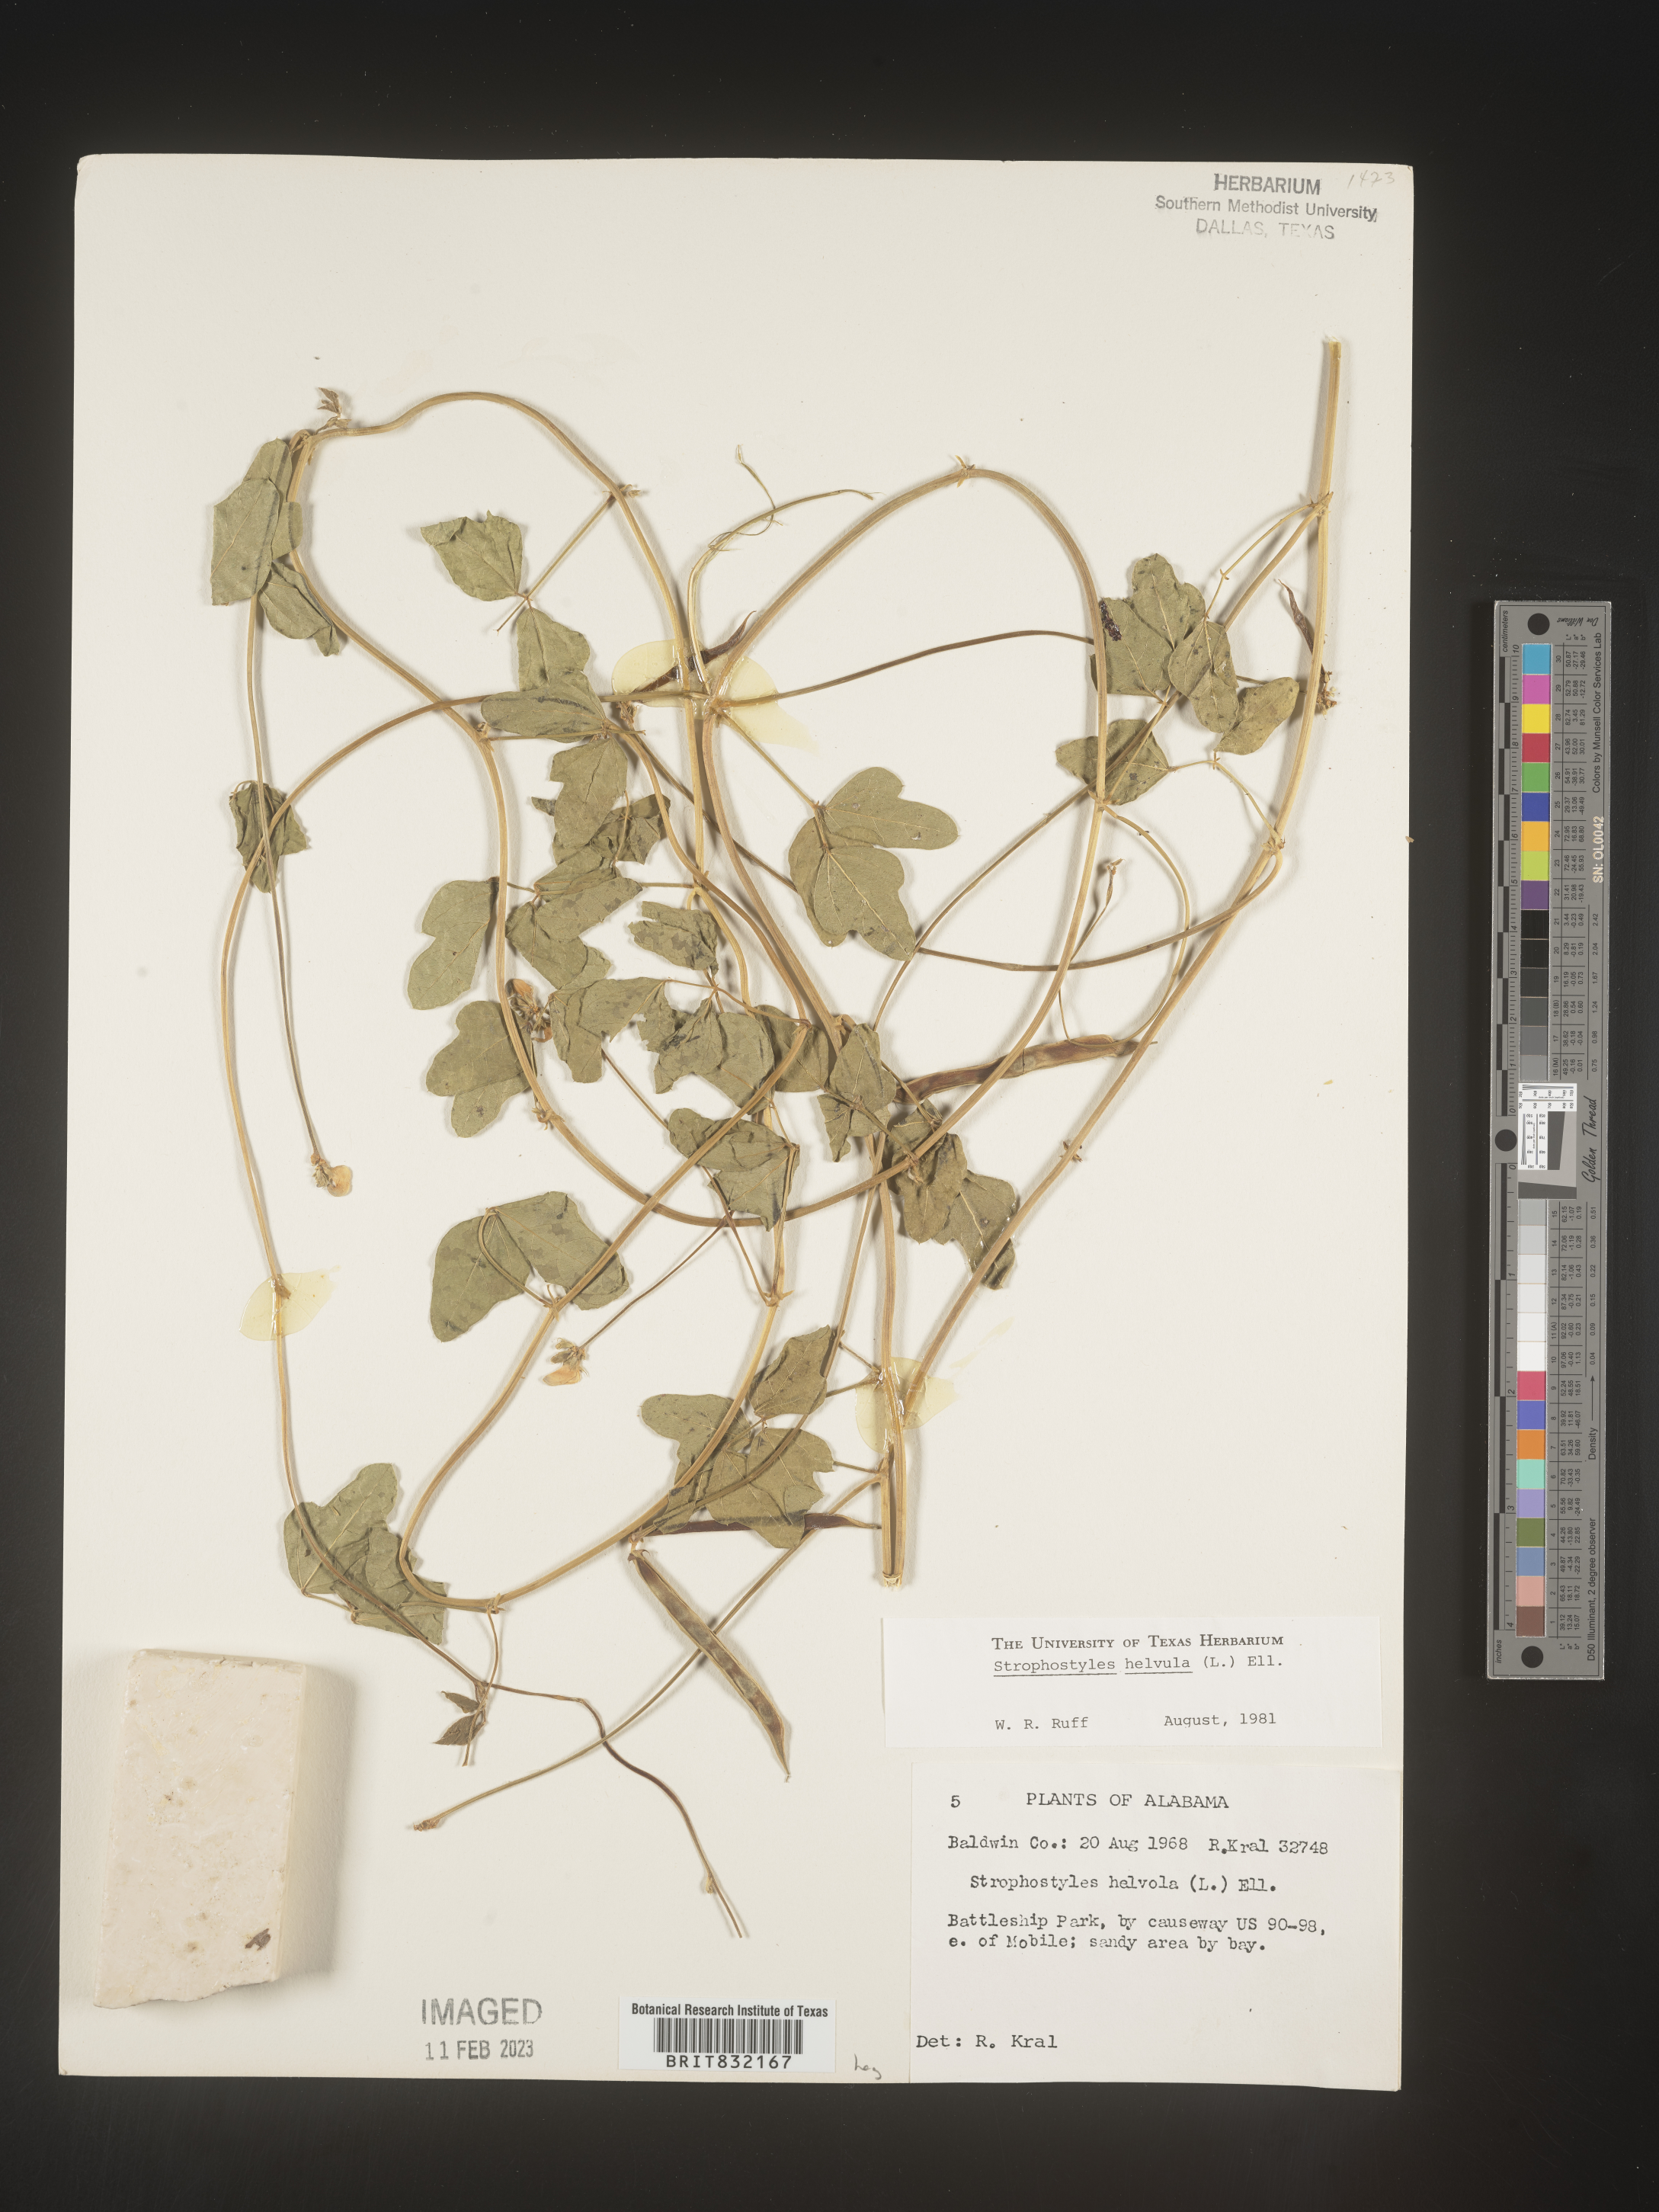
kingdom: Plantae
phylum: Tracheophyta
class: Magnoliopsida
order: Fabales
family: Fabaceae
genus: Strophostyles
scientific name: Strophostyles helvola
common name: Trailing wild bean
